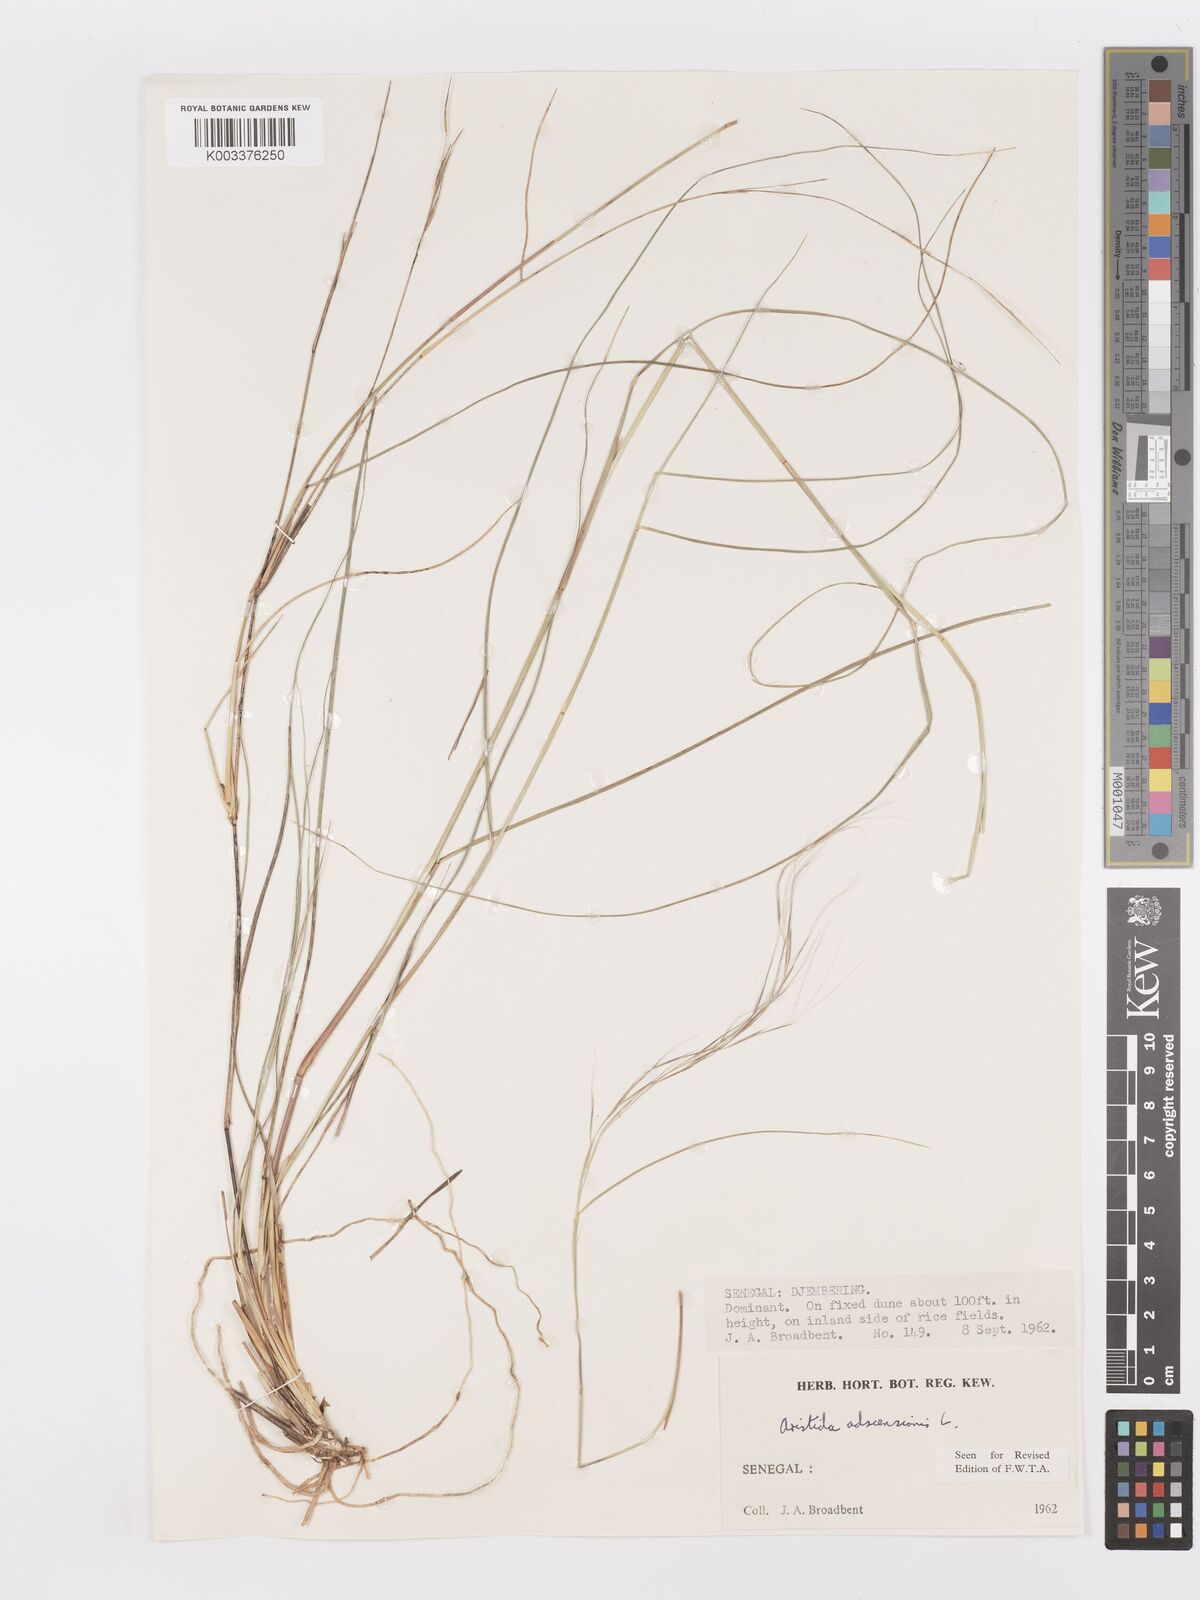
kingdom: Plantae
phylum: Tracheophyta
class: Liliopsida
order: Poales
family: Poaceae
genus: Aristida
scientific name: Aristida adscensionis
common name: Sixweeks threeawn
